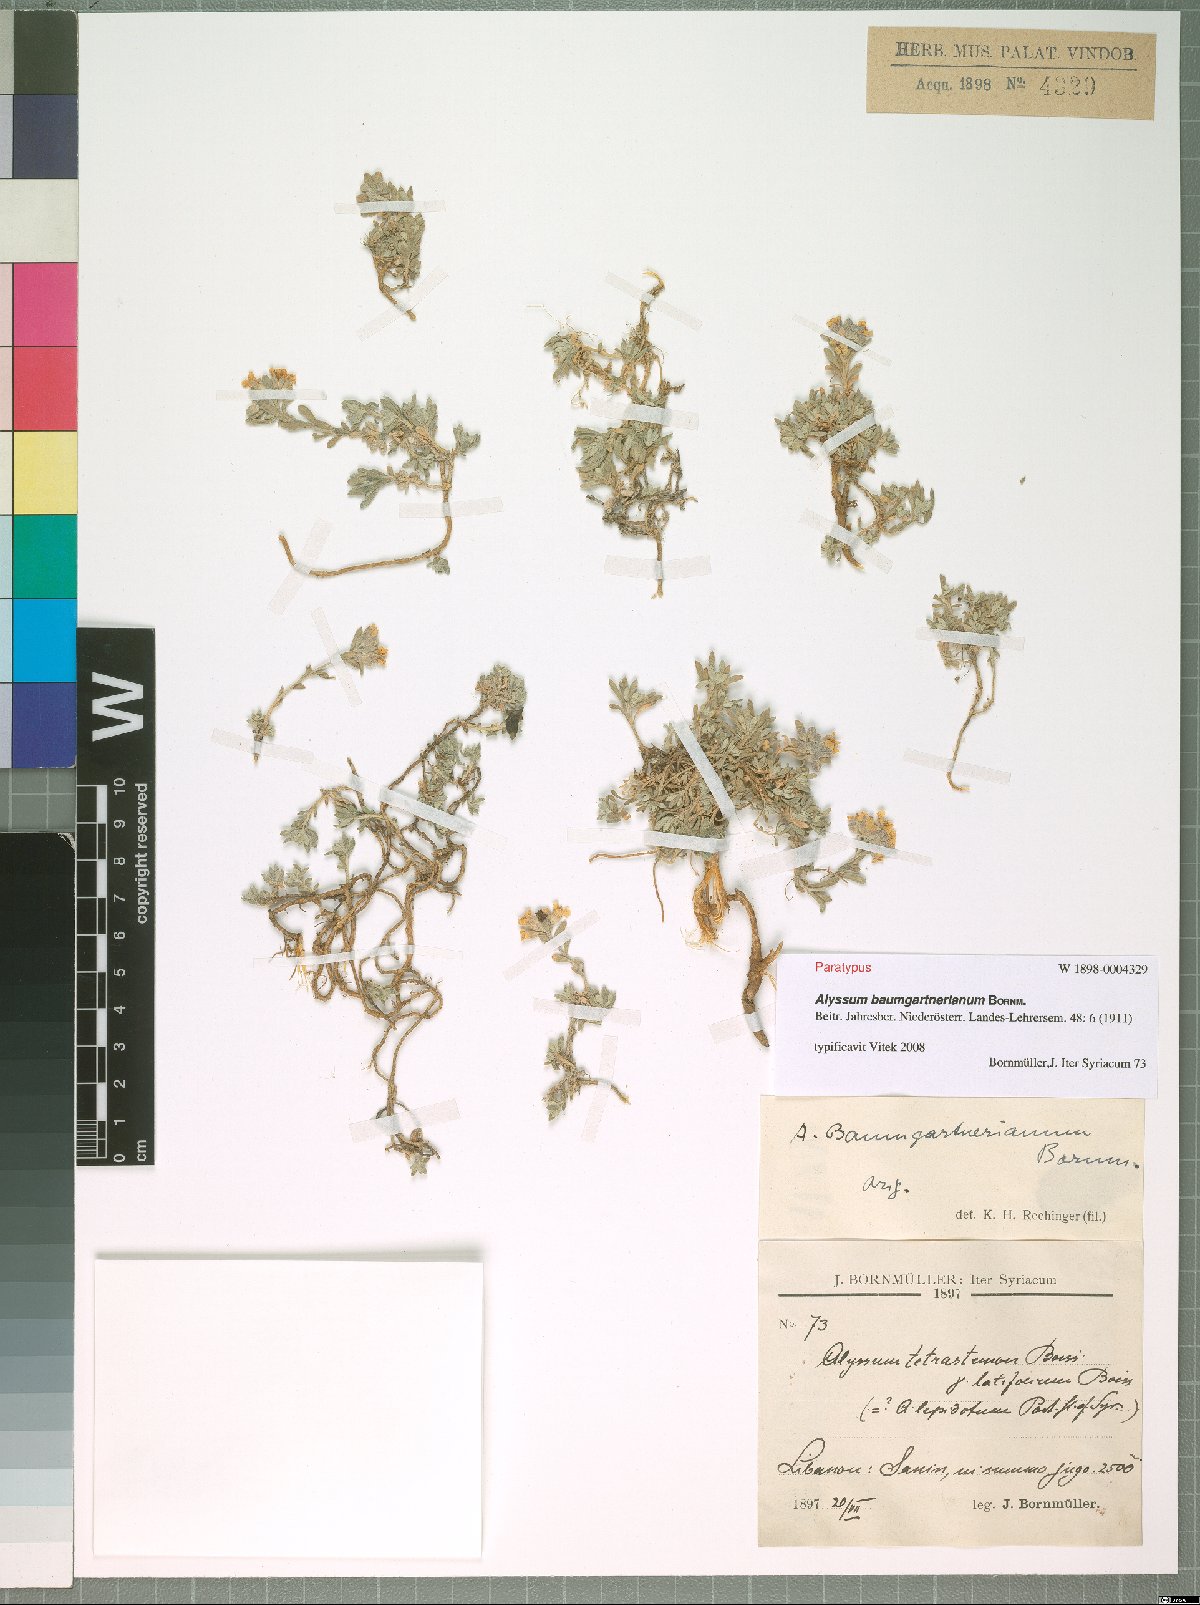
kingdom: Plantae
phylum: Tracheophyta
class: Magnoliopsida
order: Brassicales
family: Brassicaceae
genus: Alyssum
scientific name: Alyssum baumgartnerianum
